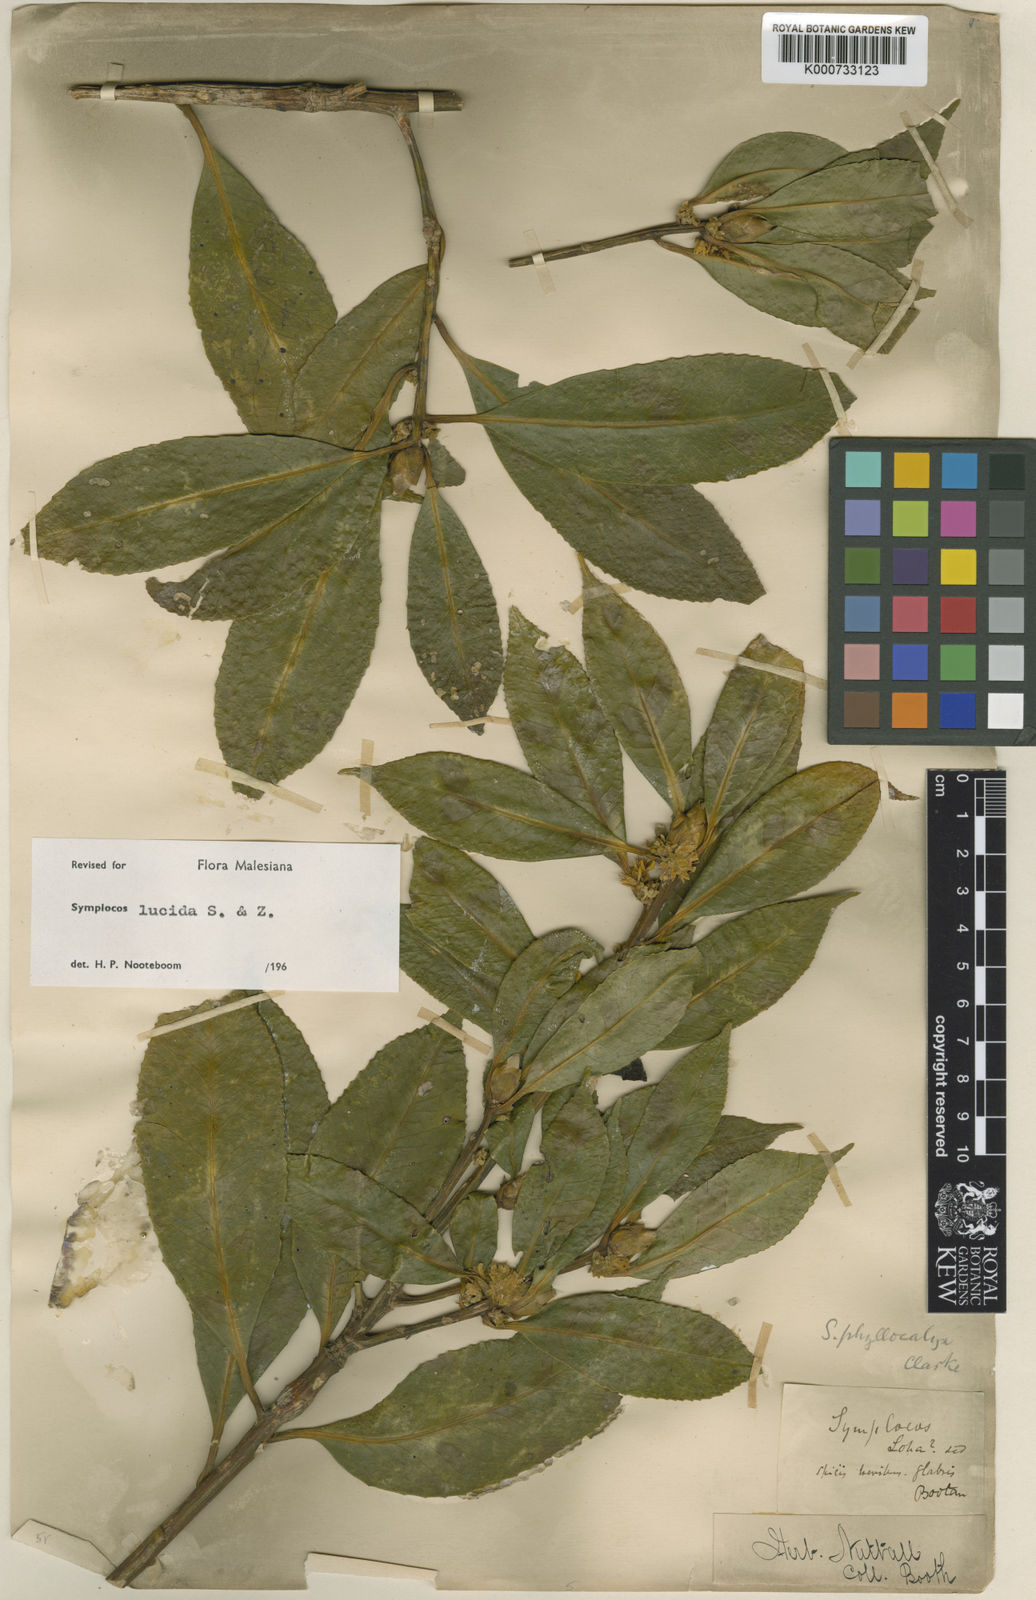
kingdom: Plantae
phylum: Tracheophyta
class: Magnoliopsida
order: Ericales
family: Symplocaceae
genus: Symplocos
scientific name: Symplocos
